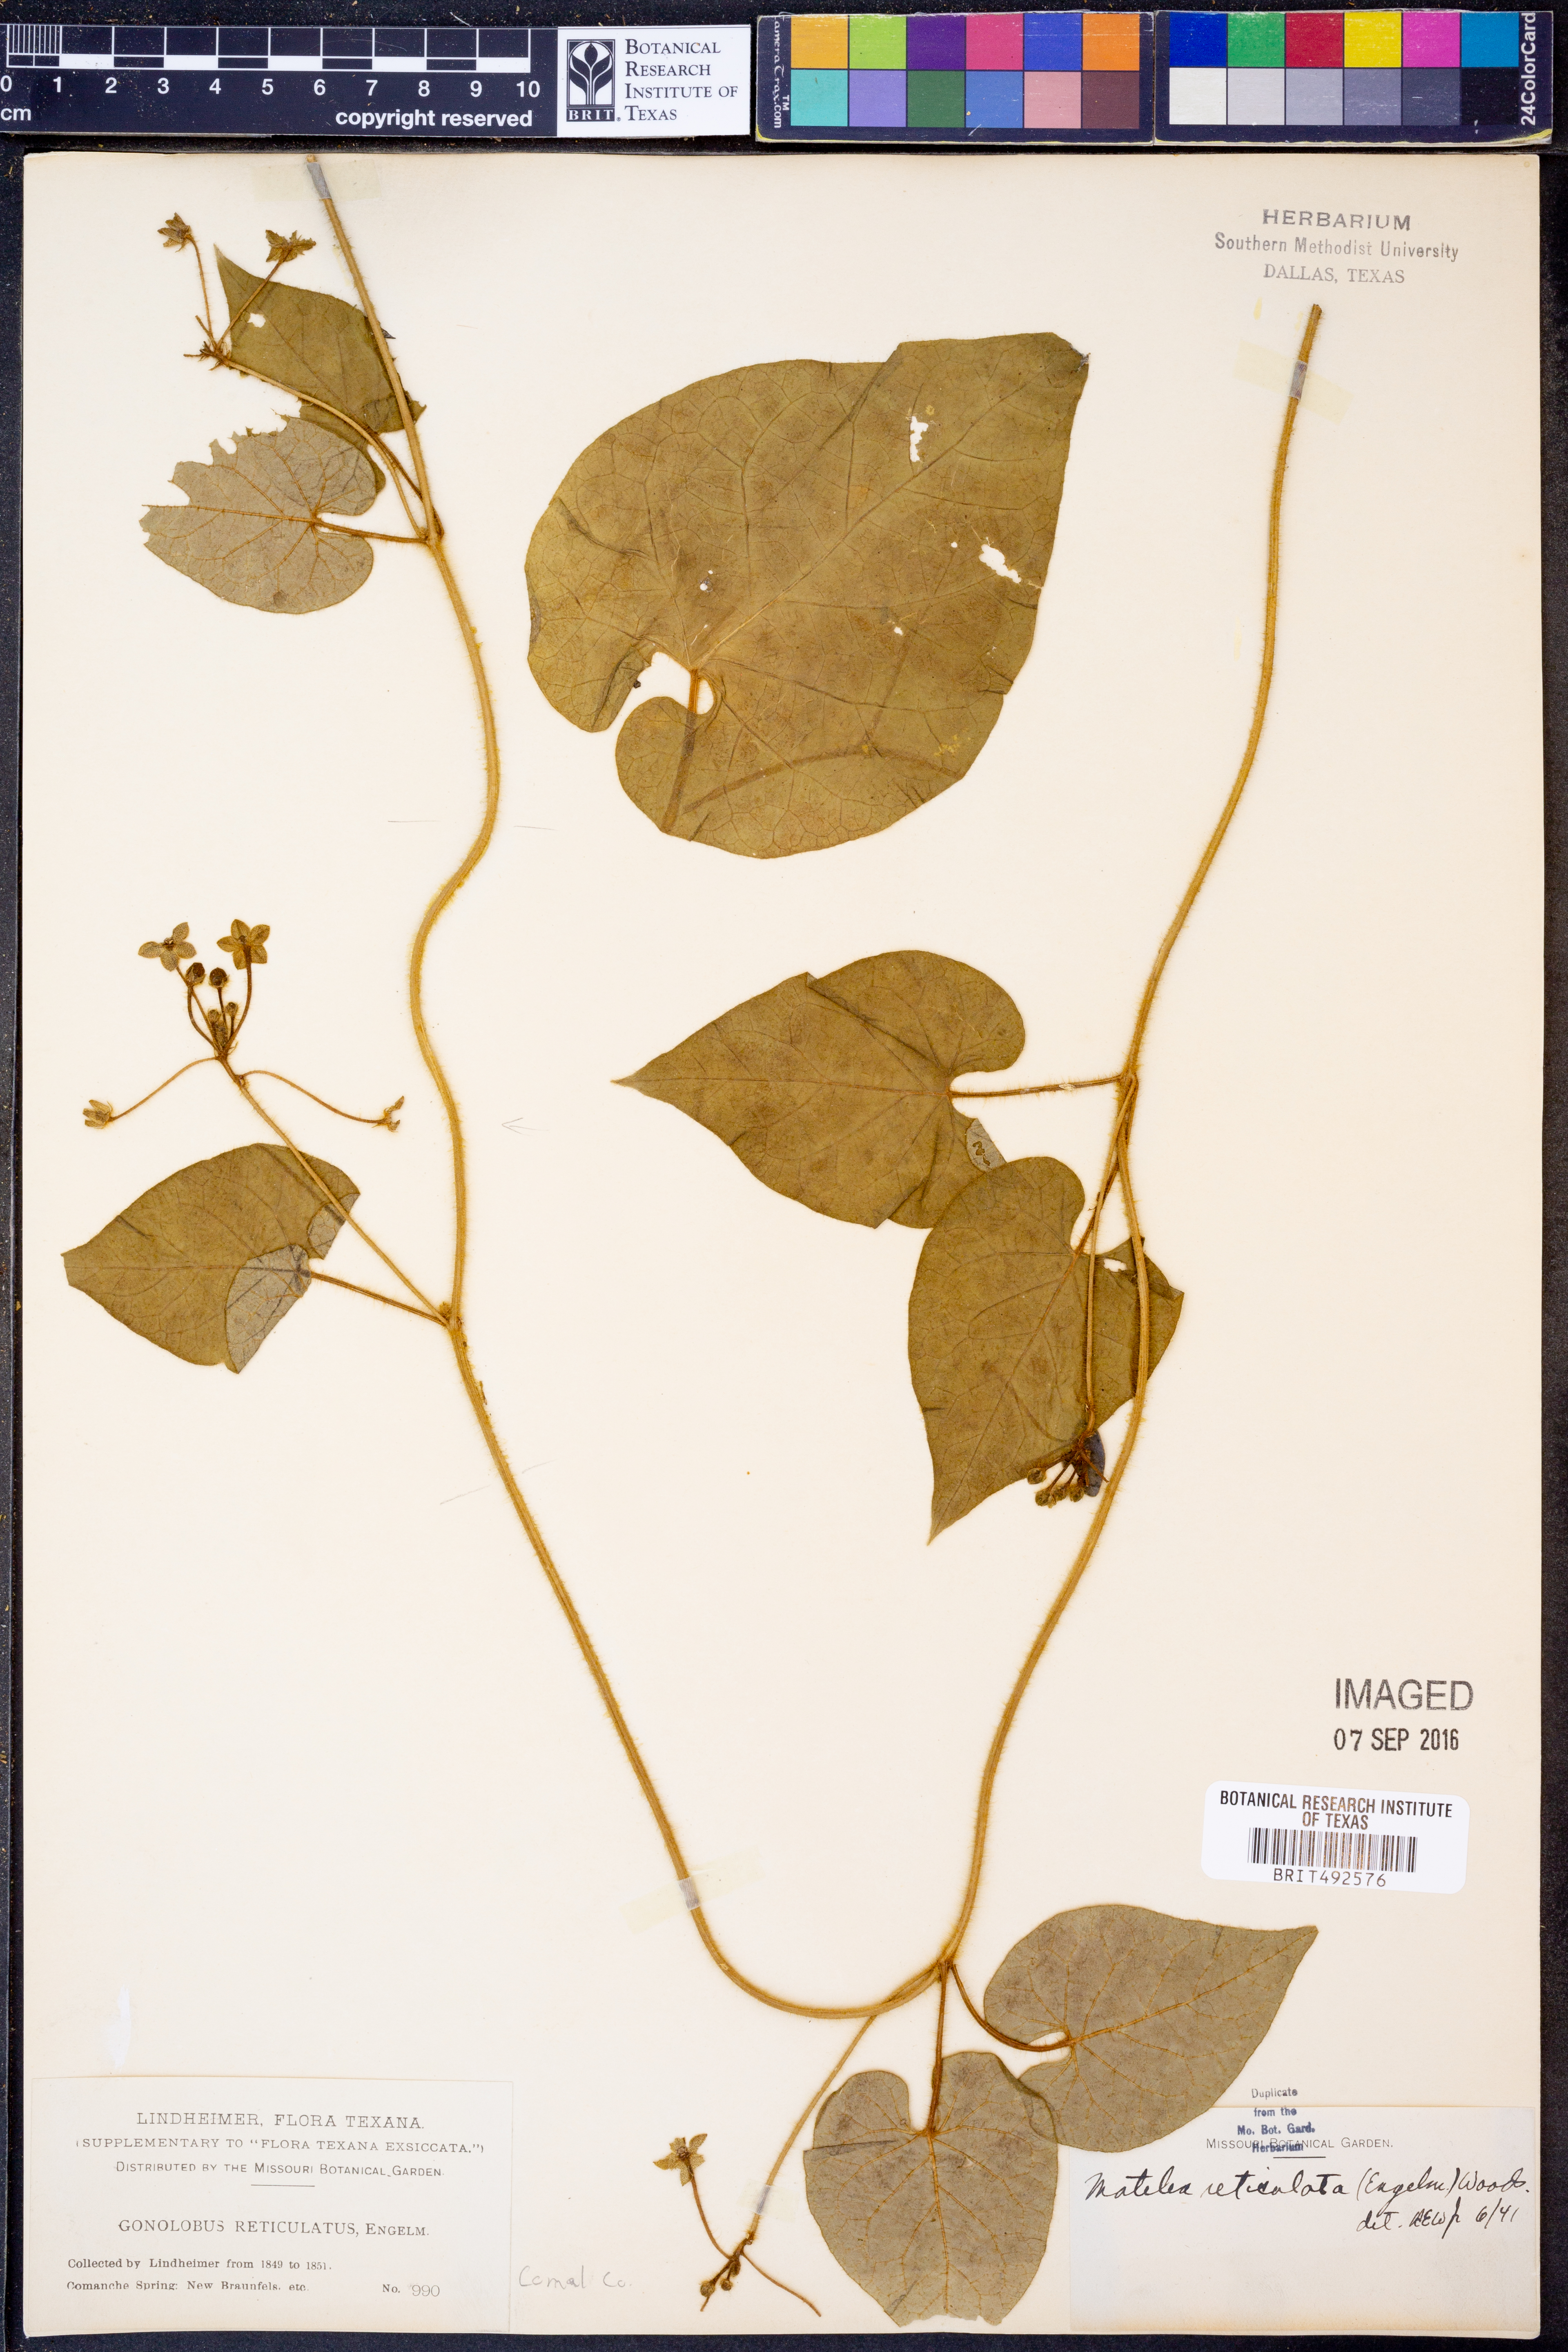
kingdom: Plantae
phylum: Tracheophyta
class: Magnoliopsida
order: Gentianales
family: Apocynaceae
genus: Dictyanthus
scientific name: Dictyanthus reticulatus
